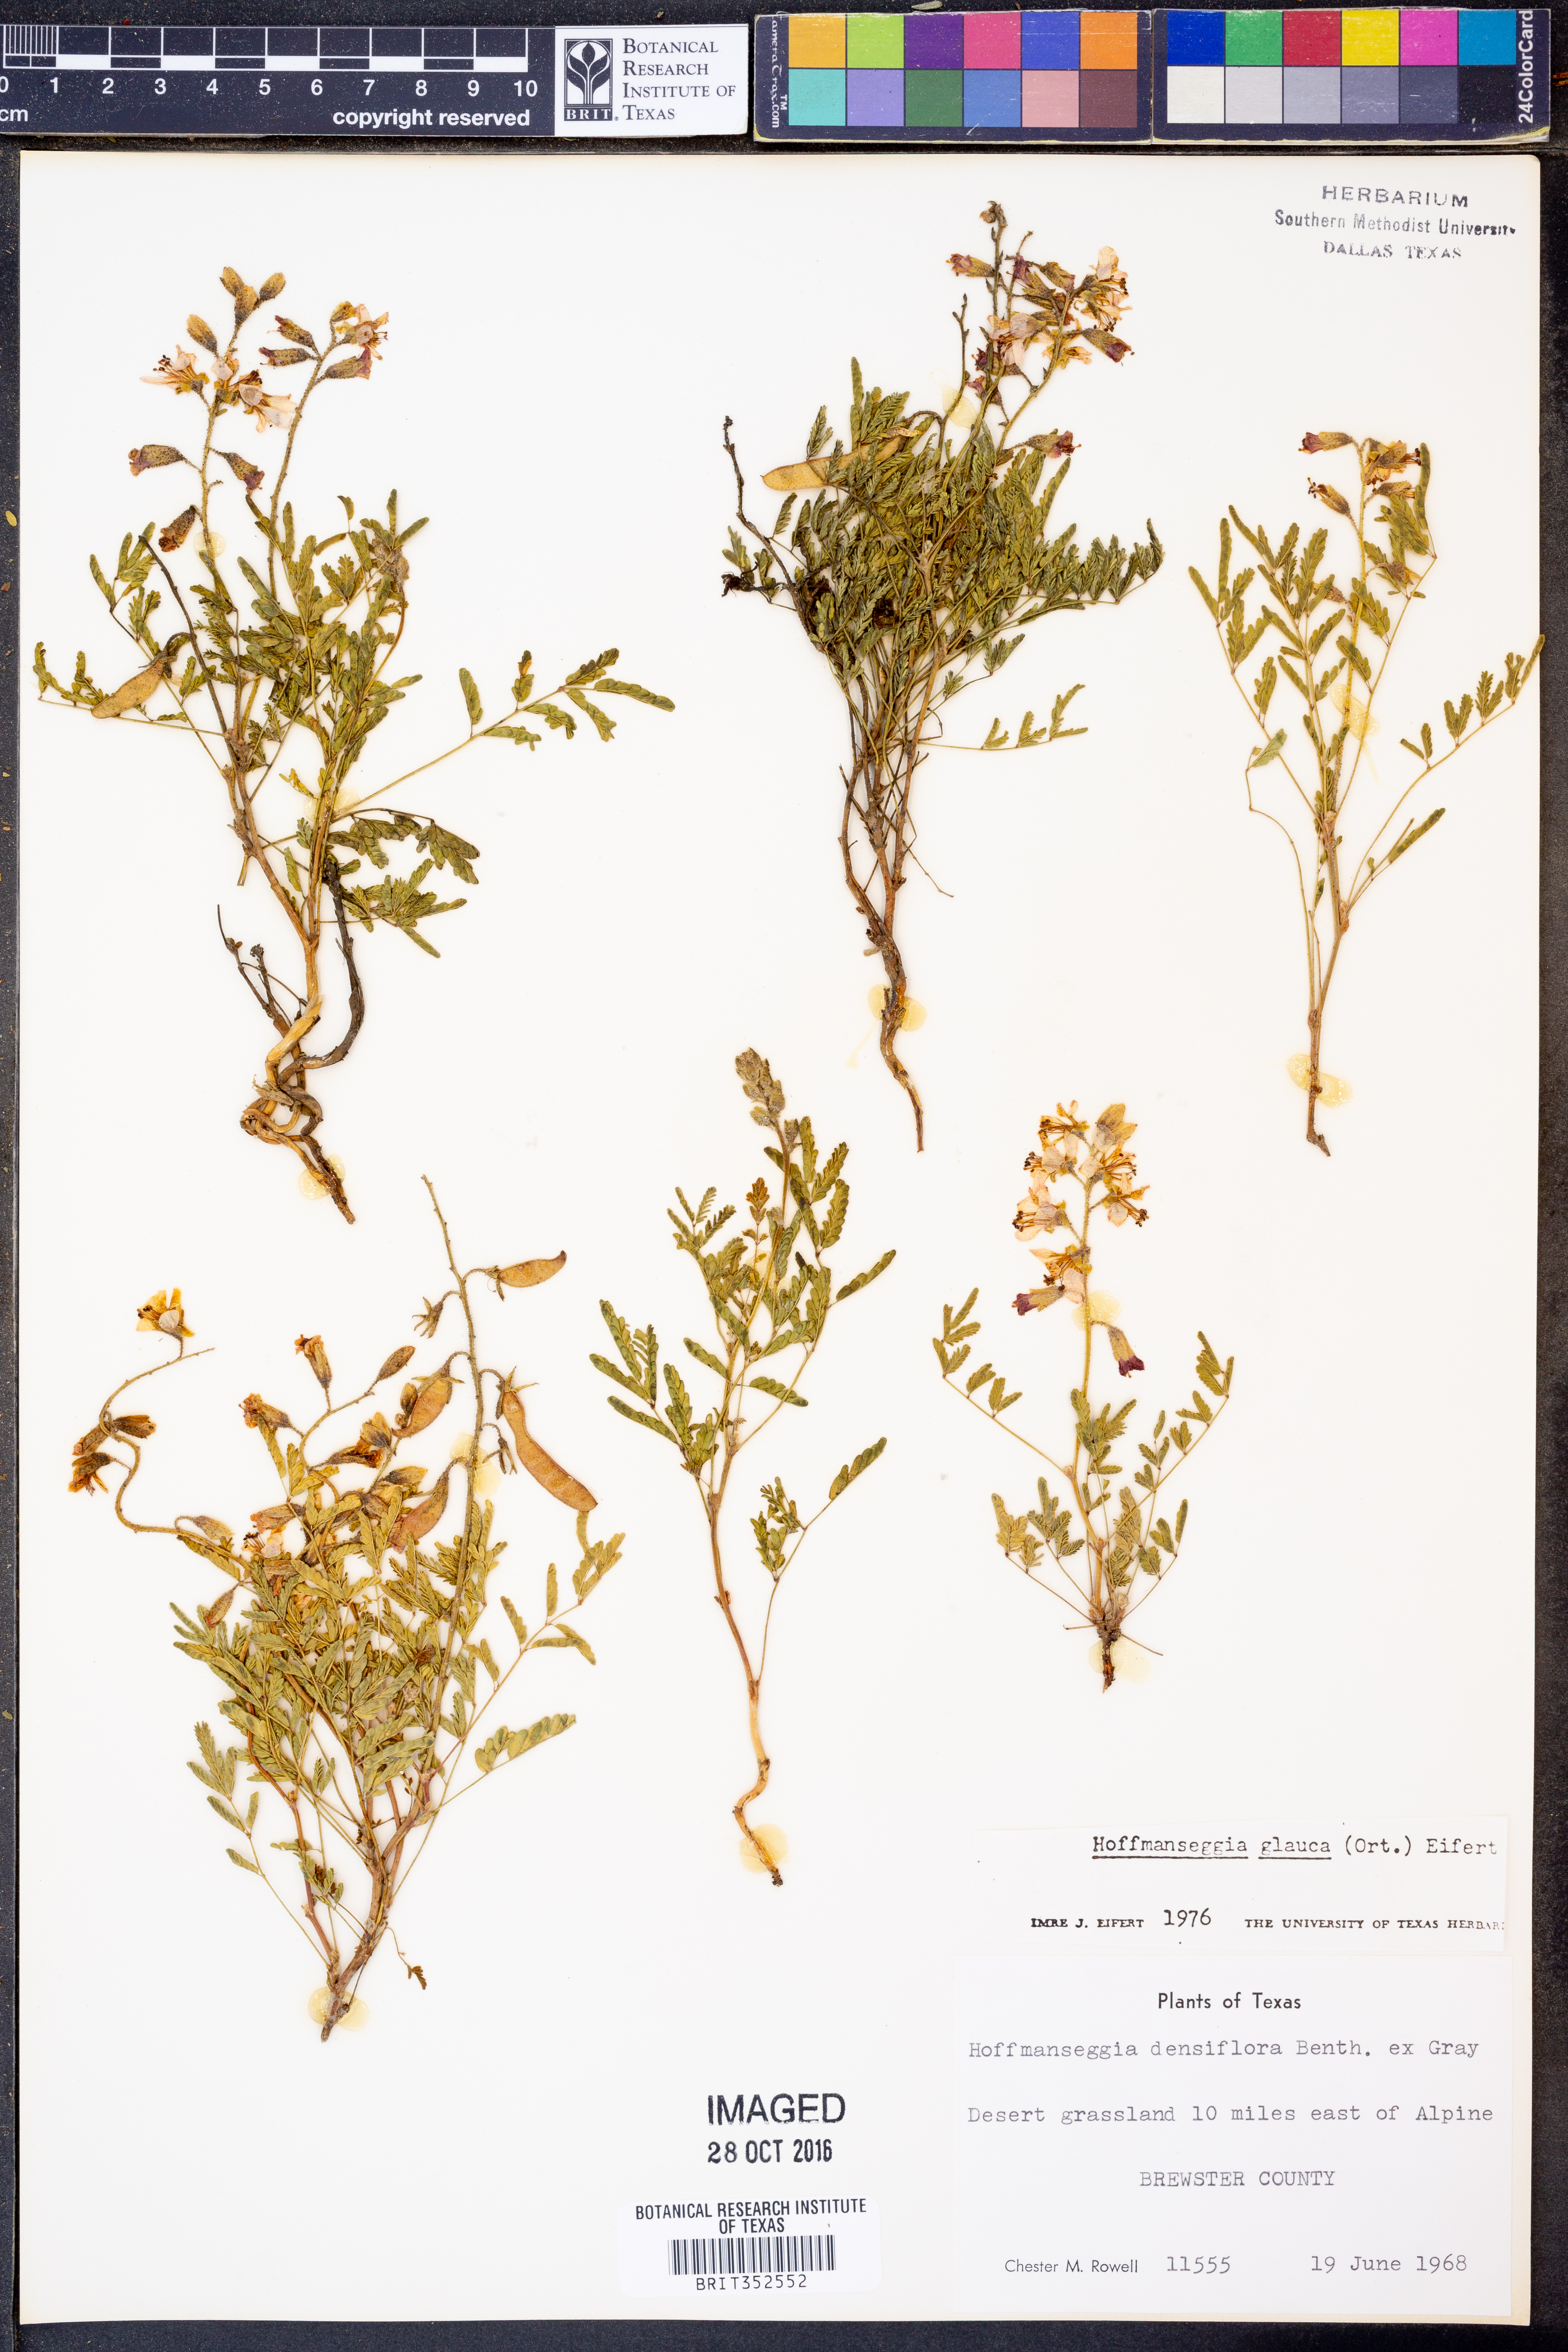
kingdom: Plantae
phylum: Tracheophyta
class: Magnoliopsida
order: Fabales
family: Fabaceae
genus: Hoffmannseggia
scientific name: Hoffmannseggia glauca
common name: Pignut
